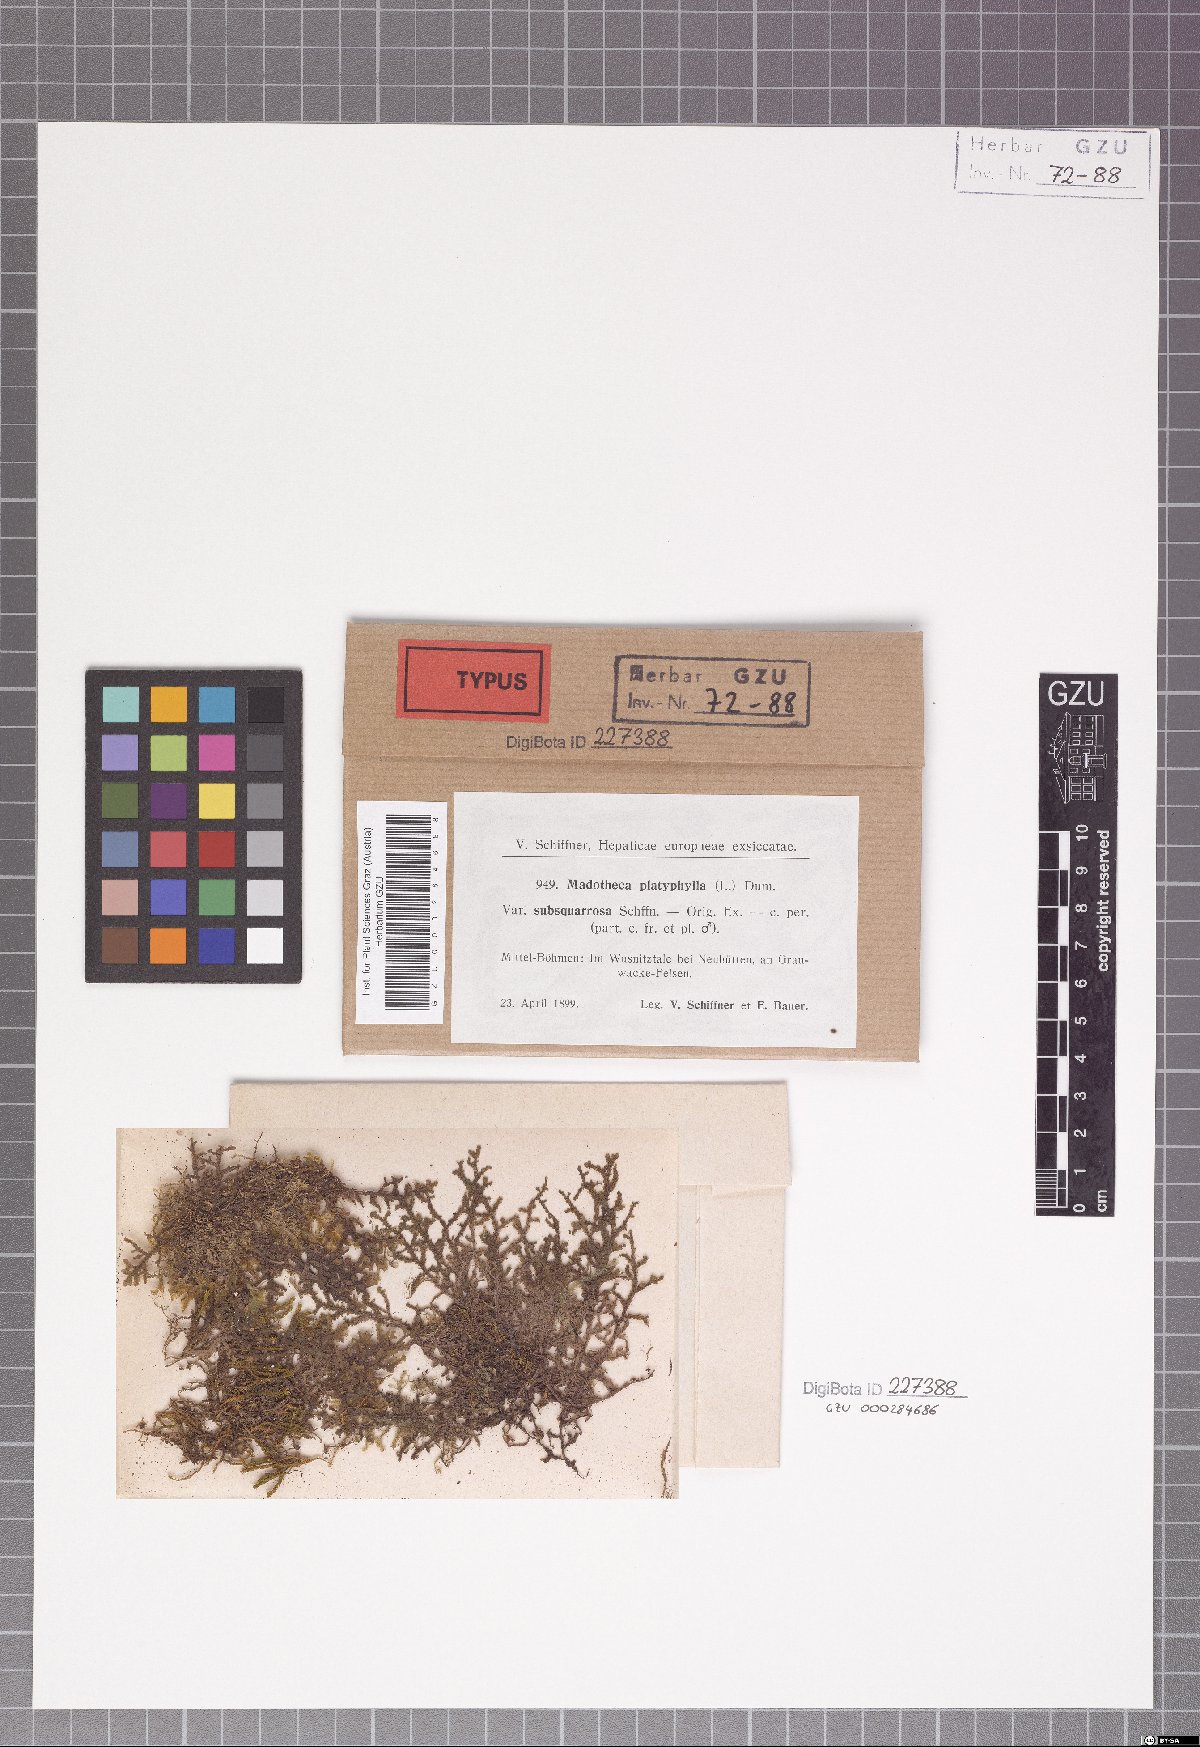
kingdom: Plantae
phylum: Marchantiophyta
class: Jungermanniopsida
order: Porellales
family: Porellaceae
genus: Porella
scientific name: Porella platyphylla
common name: Wall scalewort
